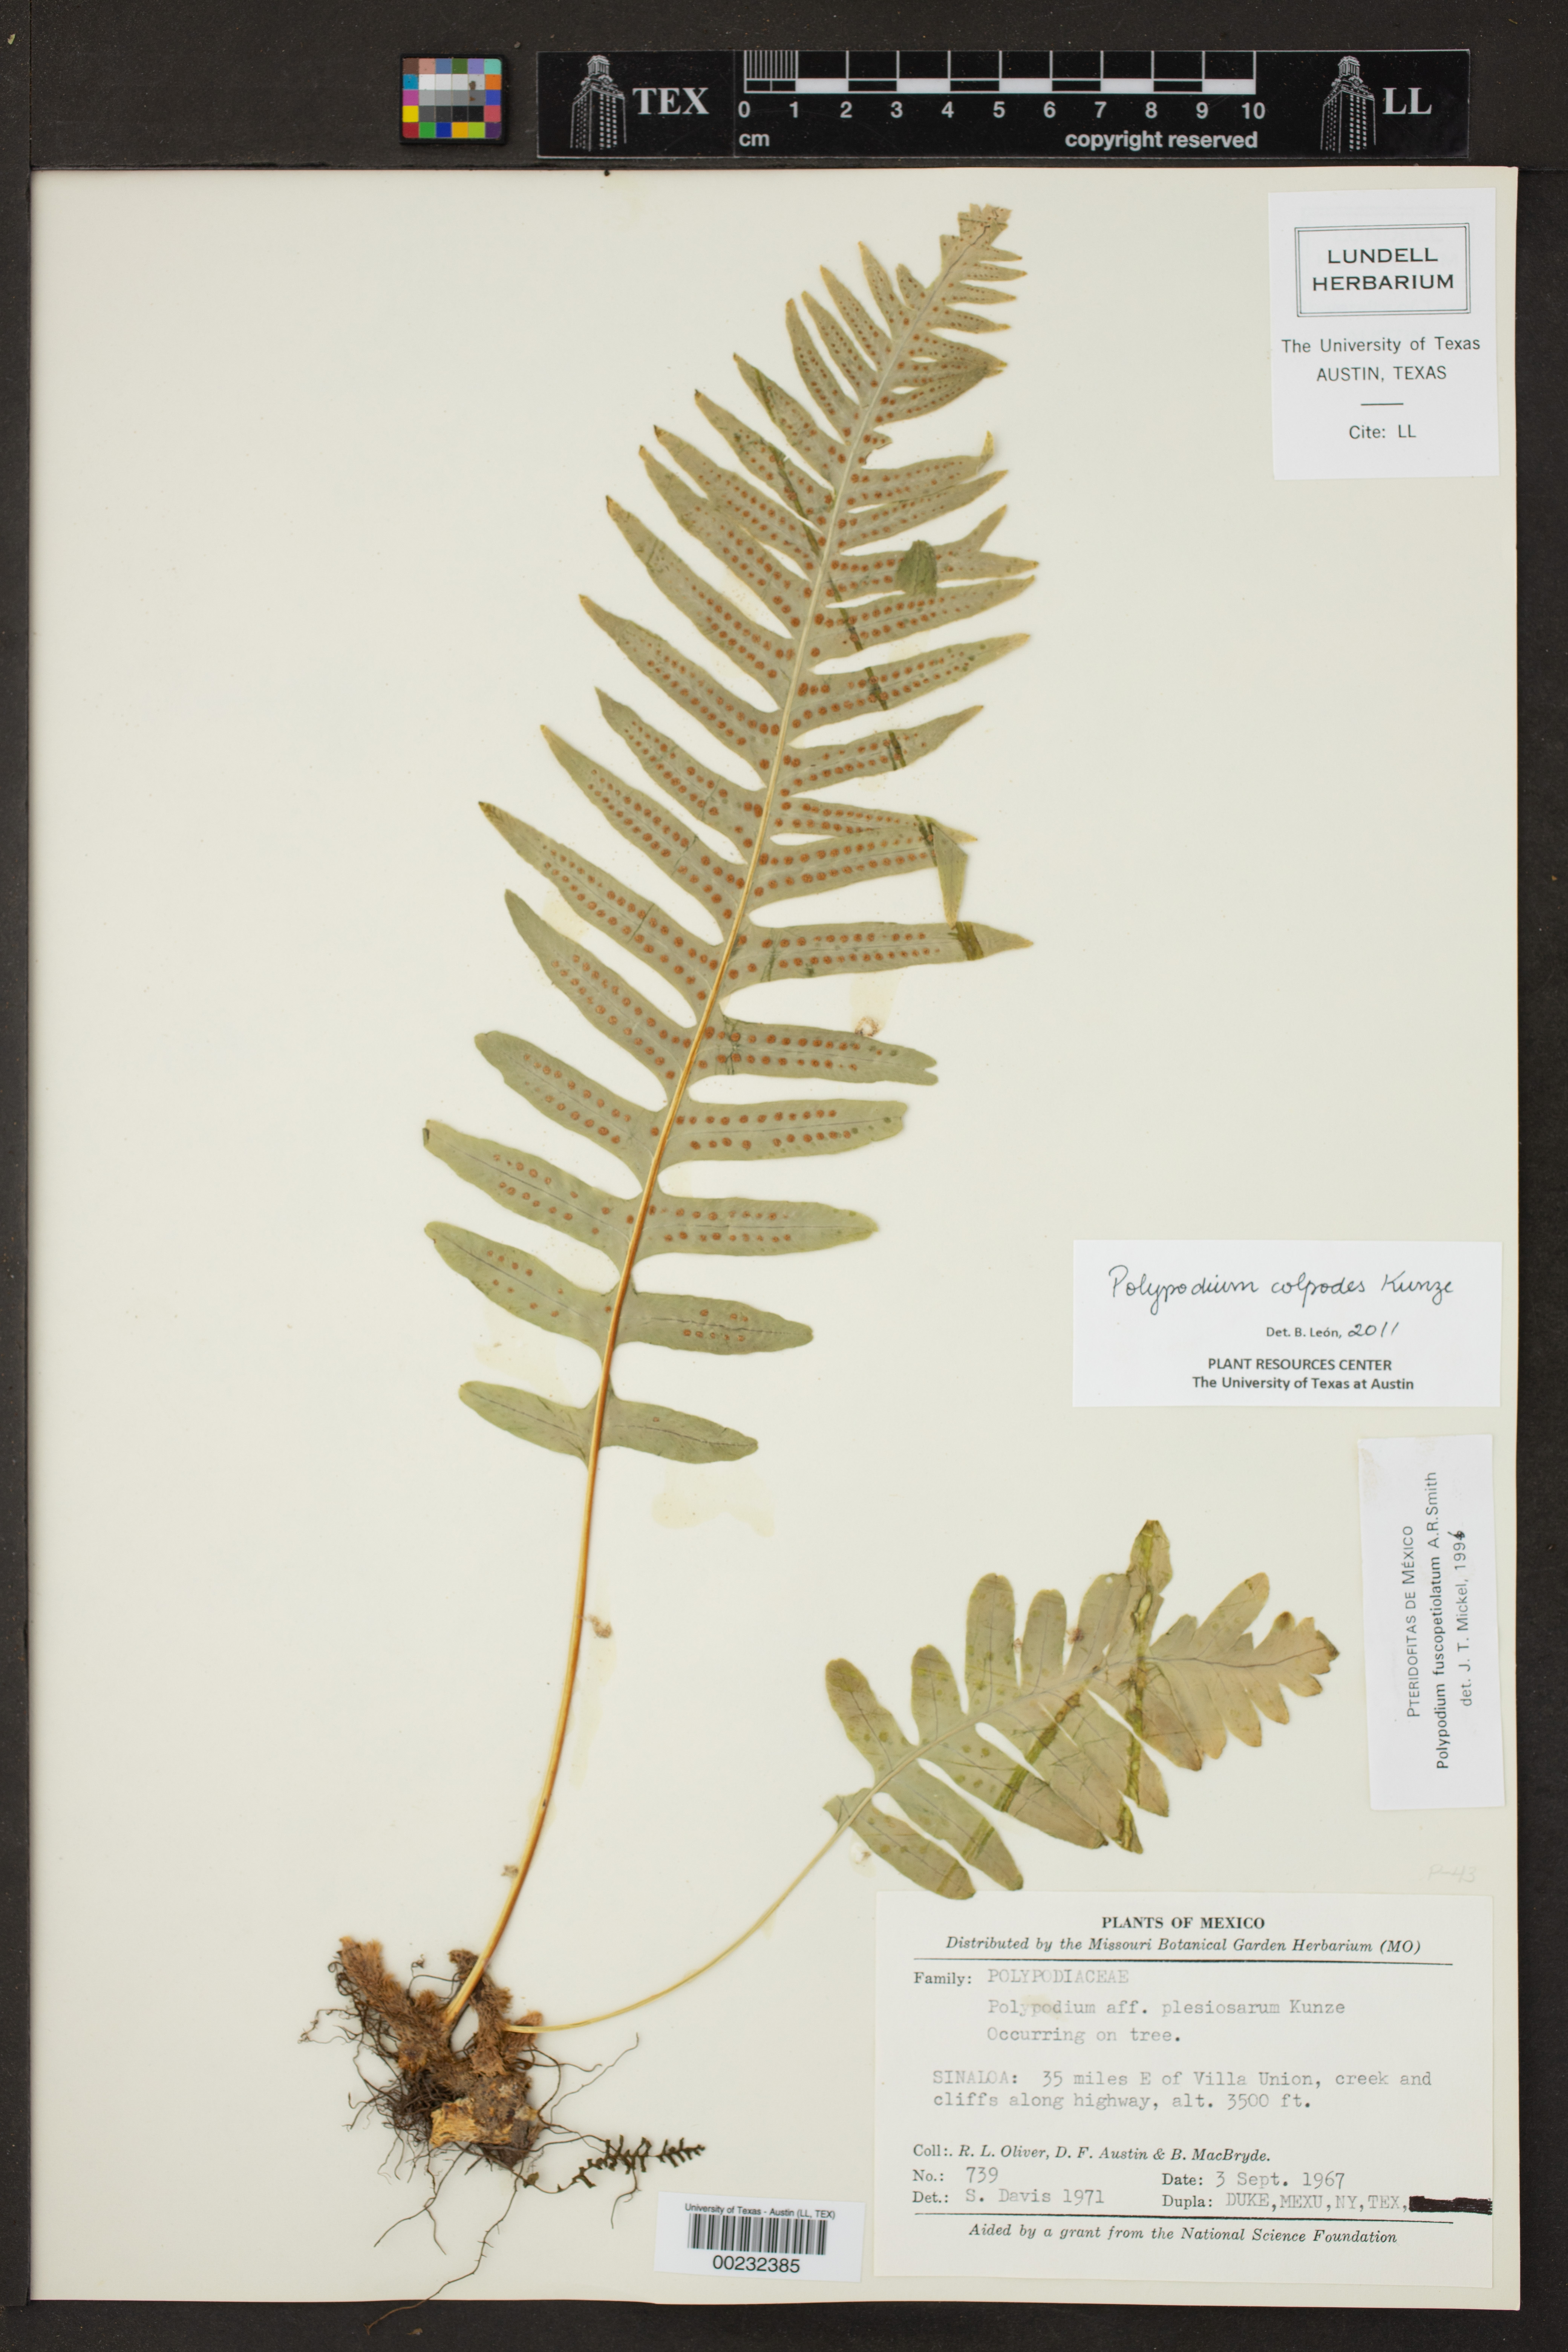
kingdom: Plantae
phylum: Tracheophyta
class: Polypodiopsida
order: Polypodiales
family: Polypodiaceae
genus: Polypodium
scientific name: Polypodium colpodes
